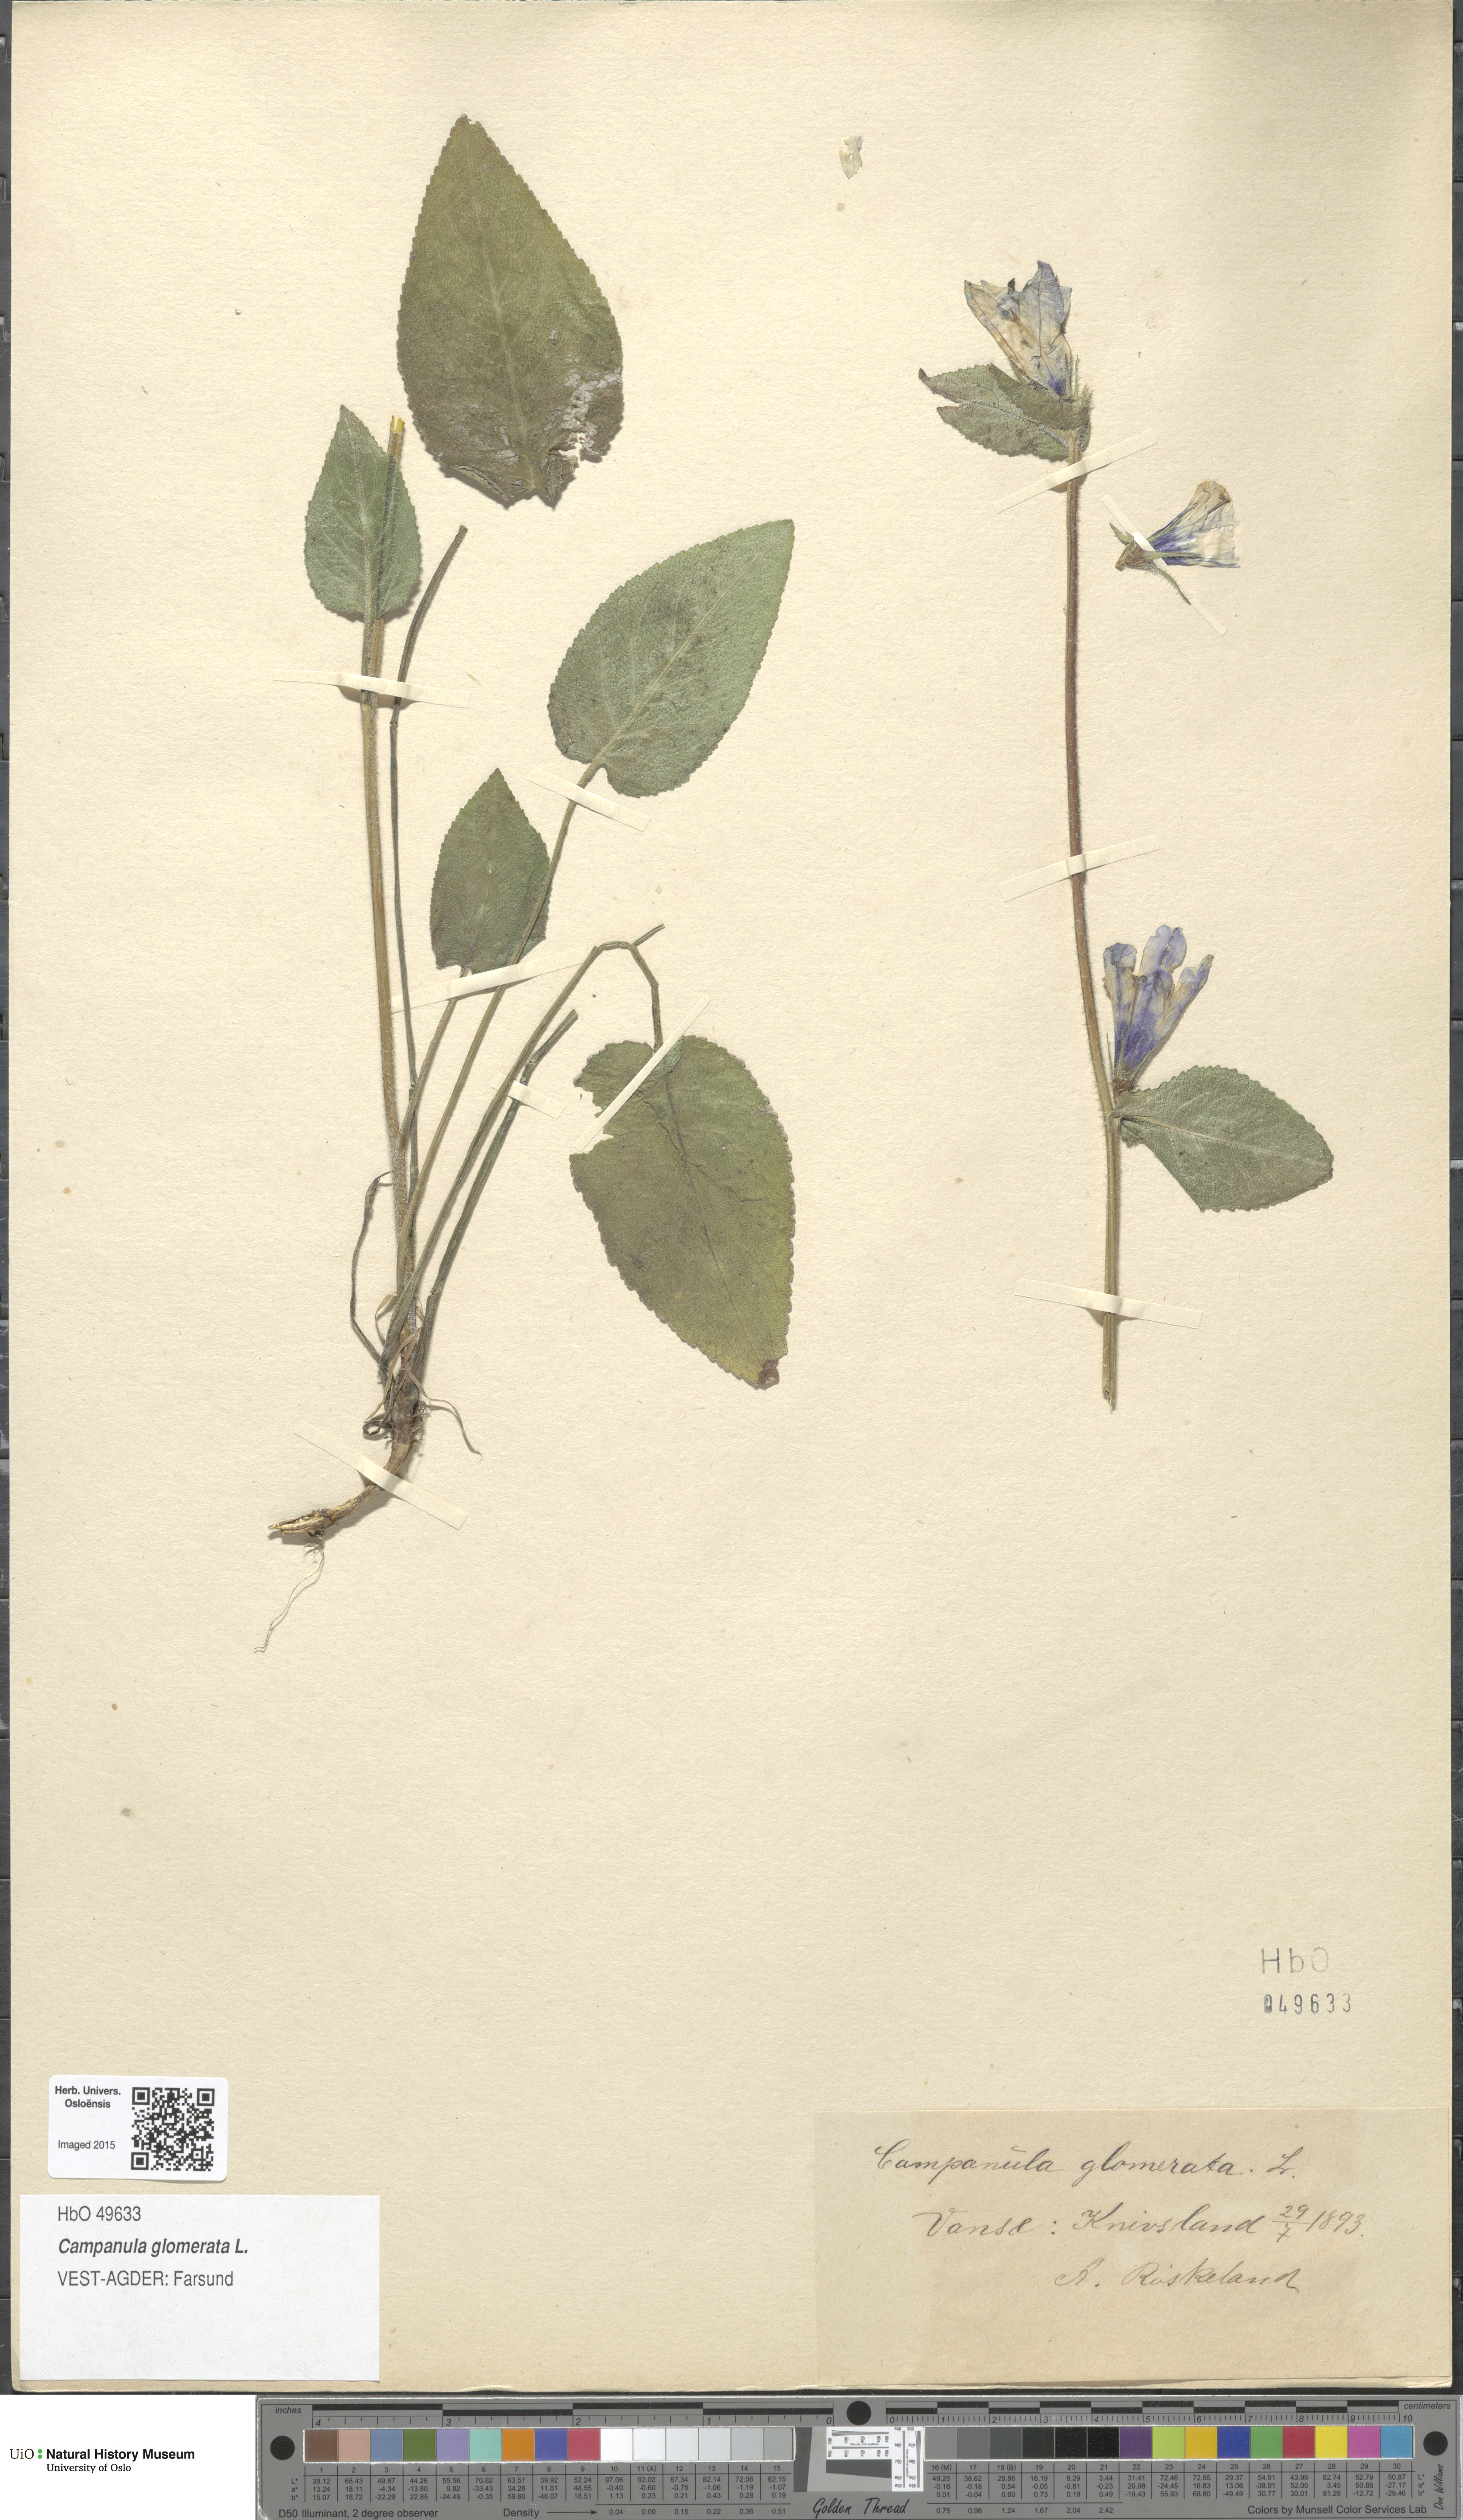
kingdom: Plantae
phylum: Tracheophyta
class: Magnoliopsida
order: Asterales
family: Campanulaceae
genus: Campanula
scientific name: Campanula glomerata
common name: Clustered bellflower
